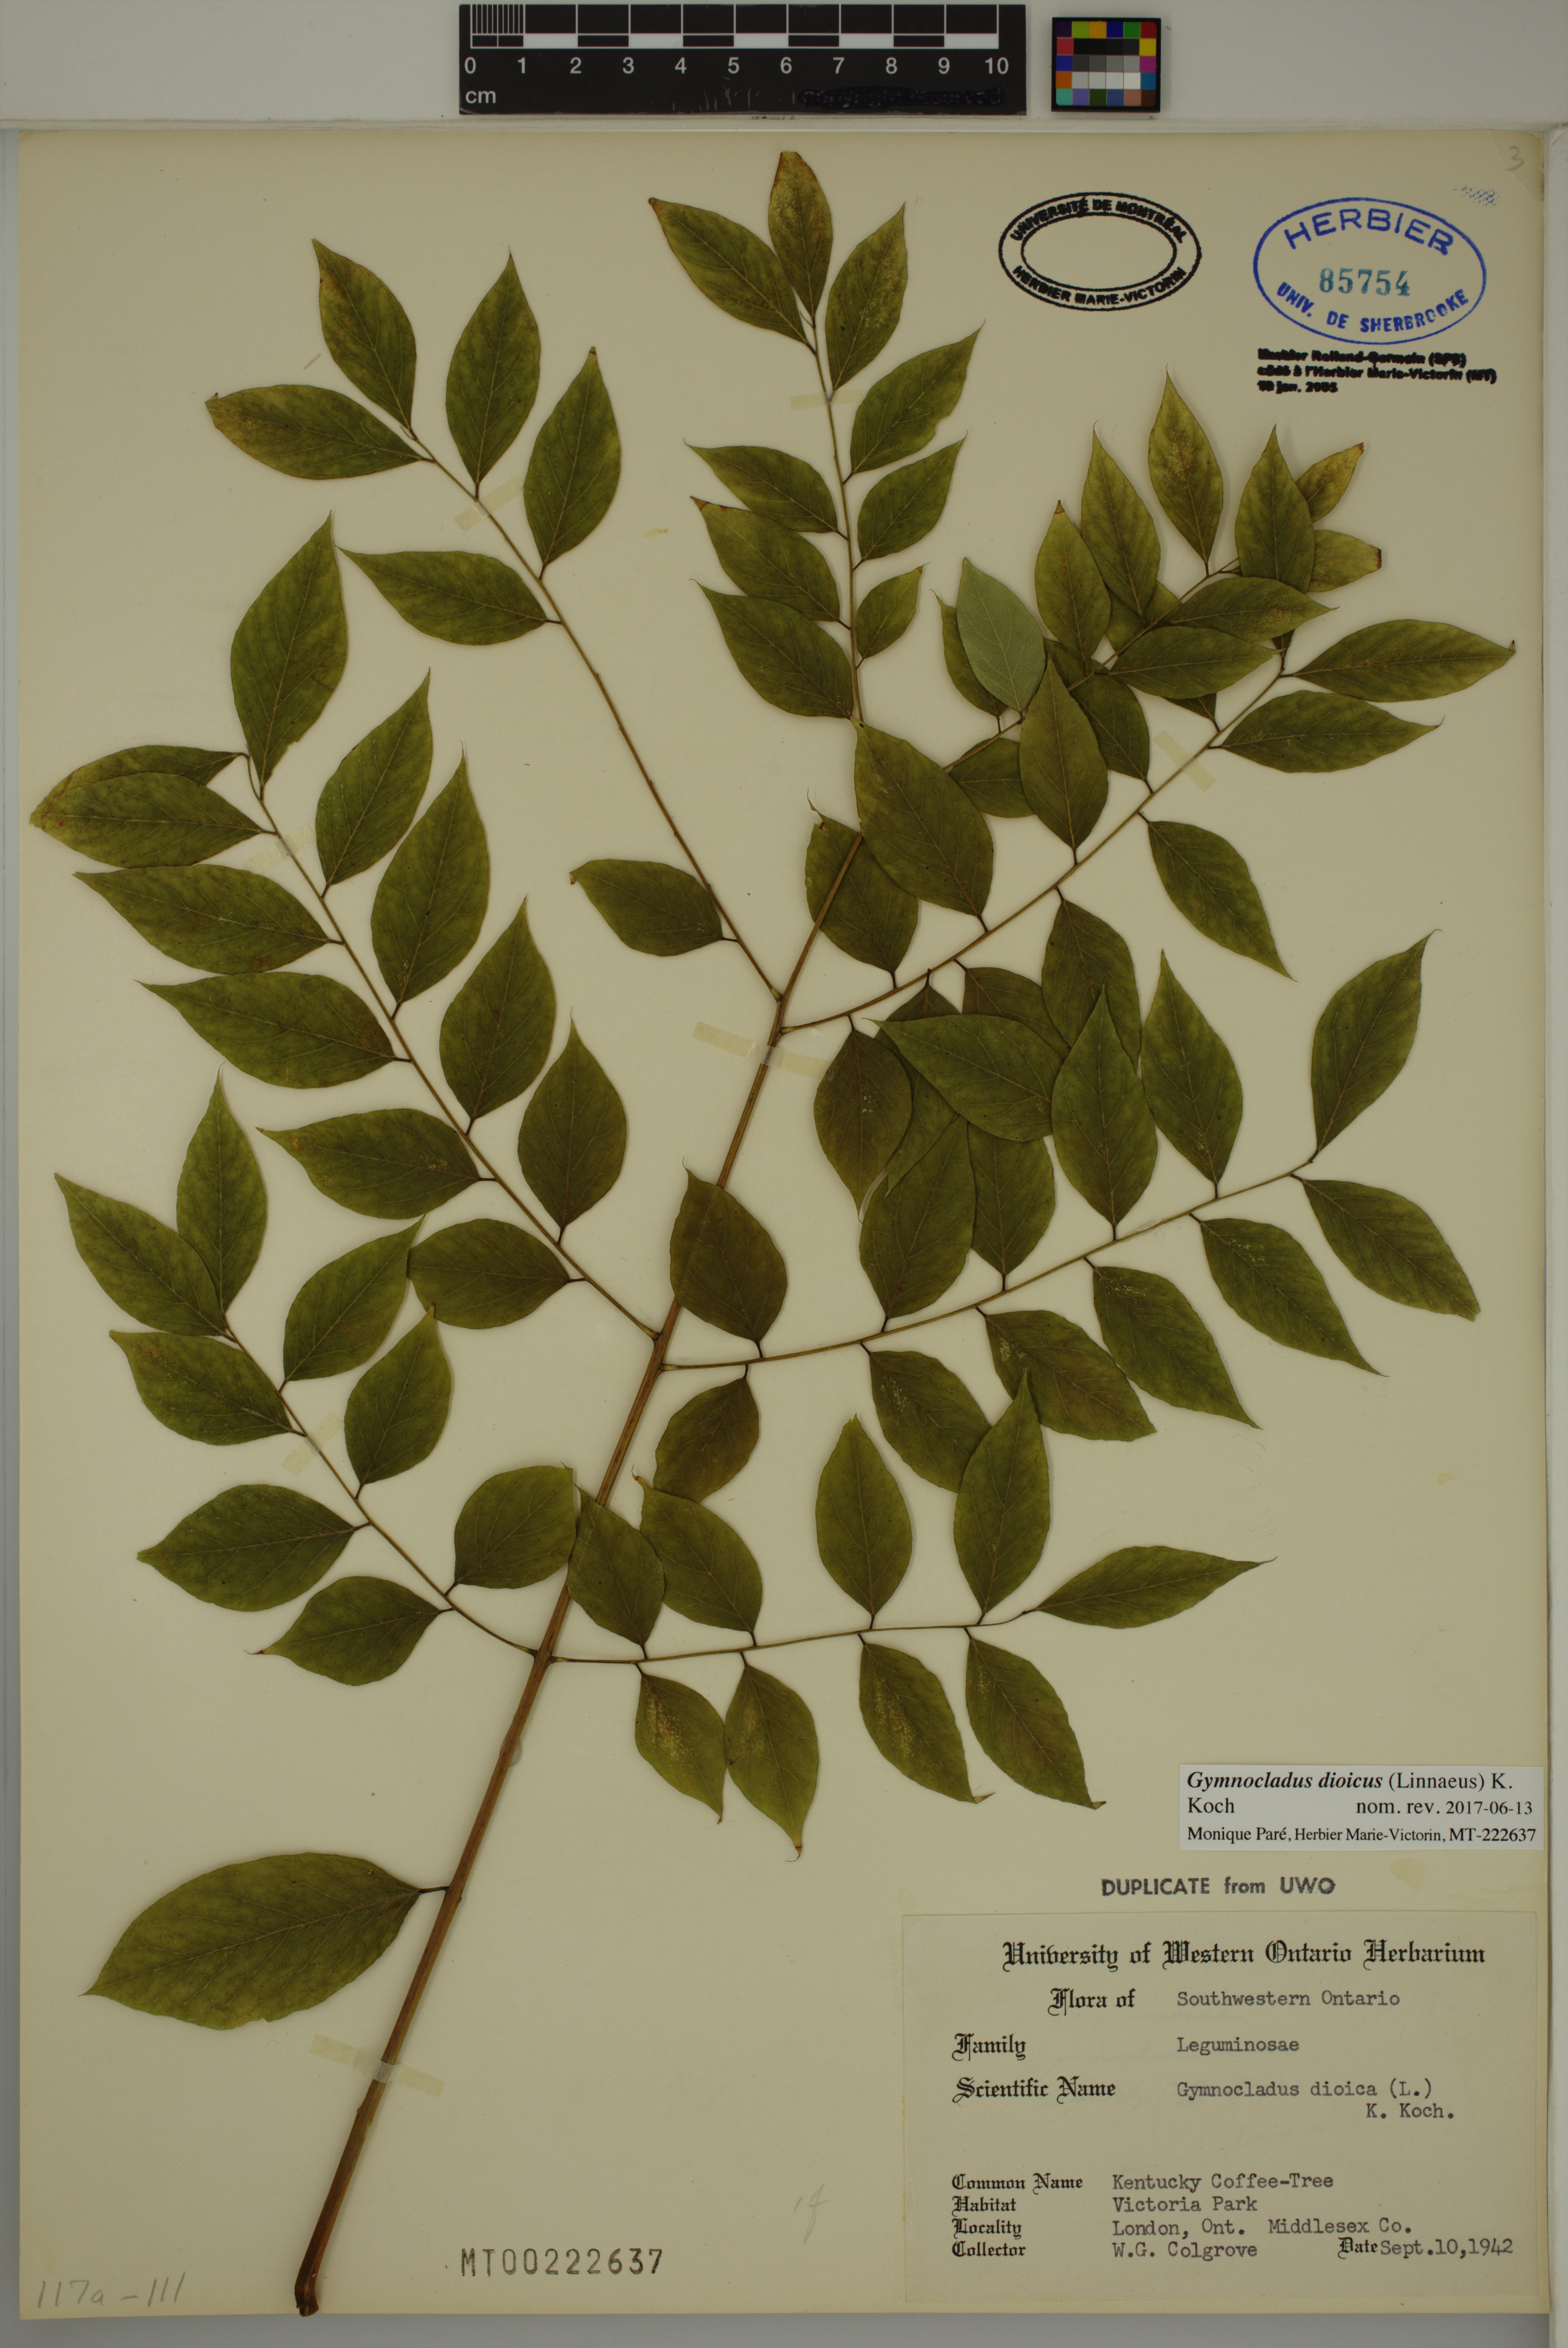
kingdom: Plantae
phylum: Tracheophyta
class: Magnoliopsida
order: Fabales
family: Fabaceae
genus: Gymnocladus
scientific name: Gymnocladus dioicus
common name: Kentucky coffee-tree
